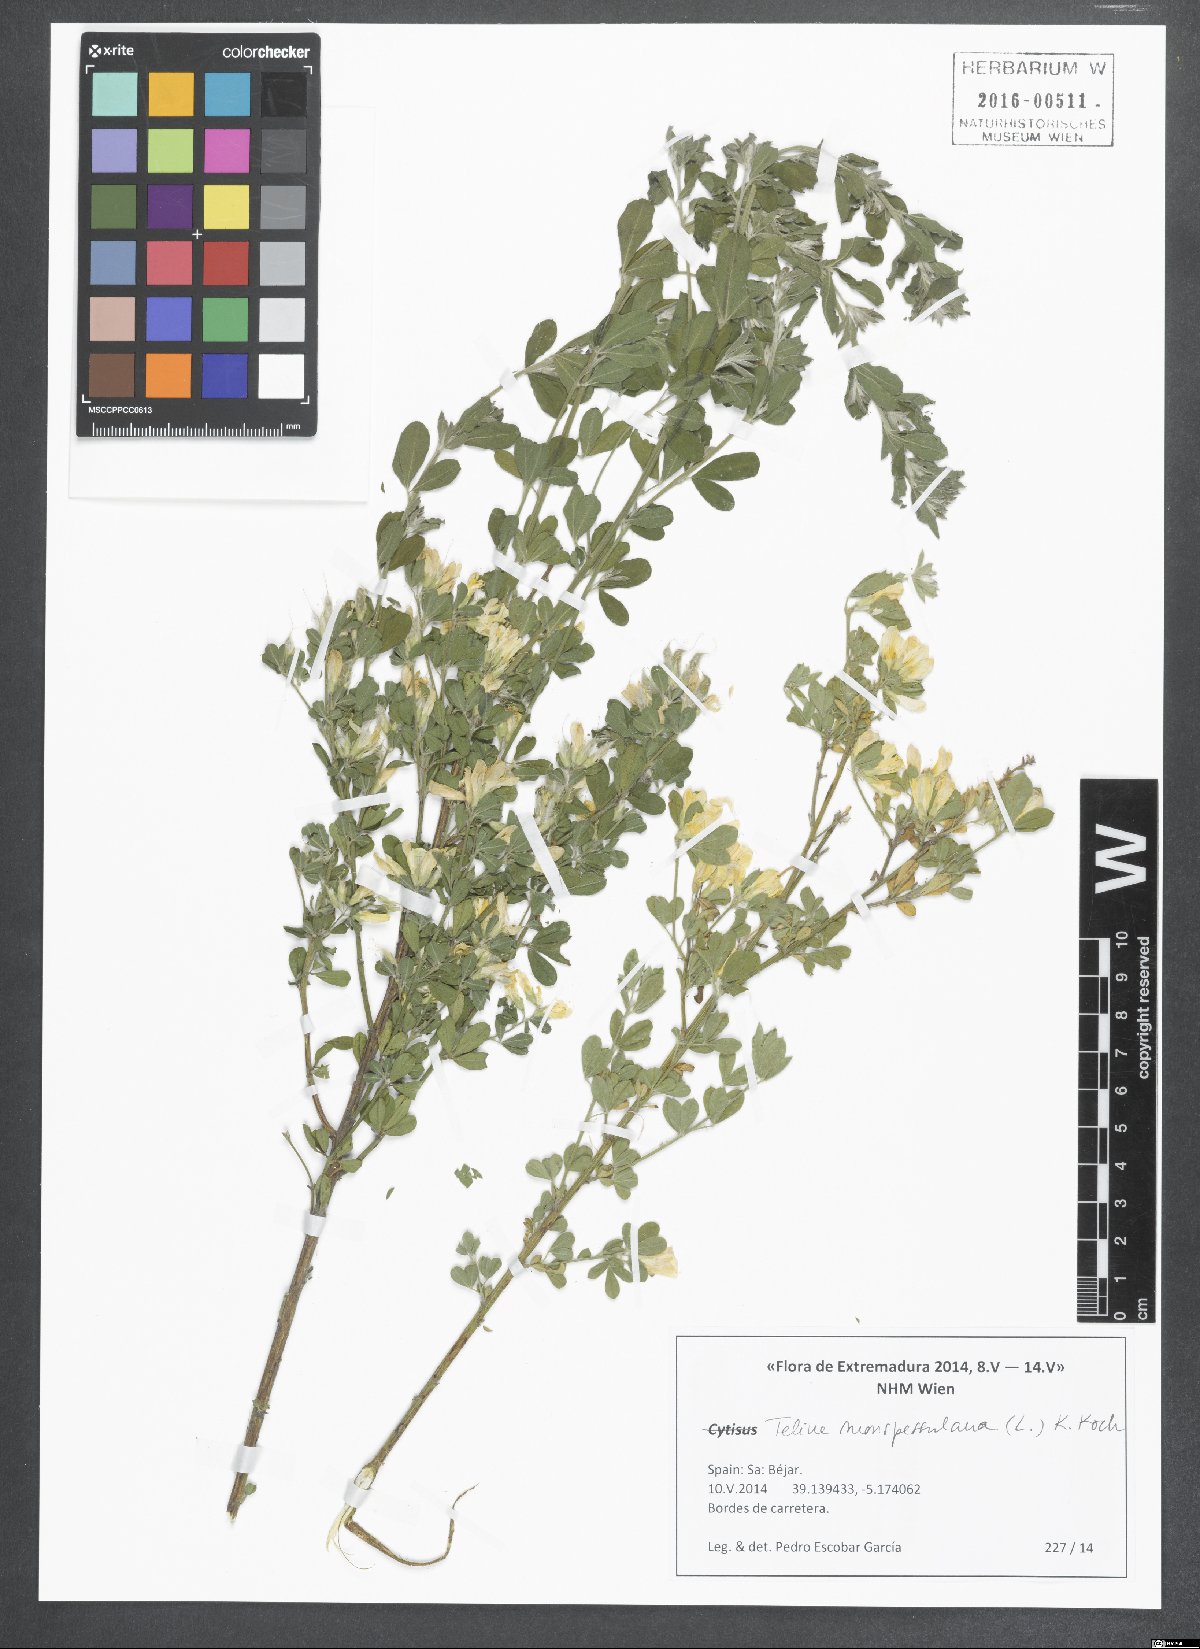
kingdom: Plantae
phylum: Tracheophyta
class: Magnoliopsida
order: Fabales
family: Fabaceae
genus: Genista
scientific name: Genista monspessulana
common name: Montpellier broom
